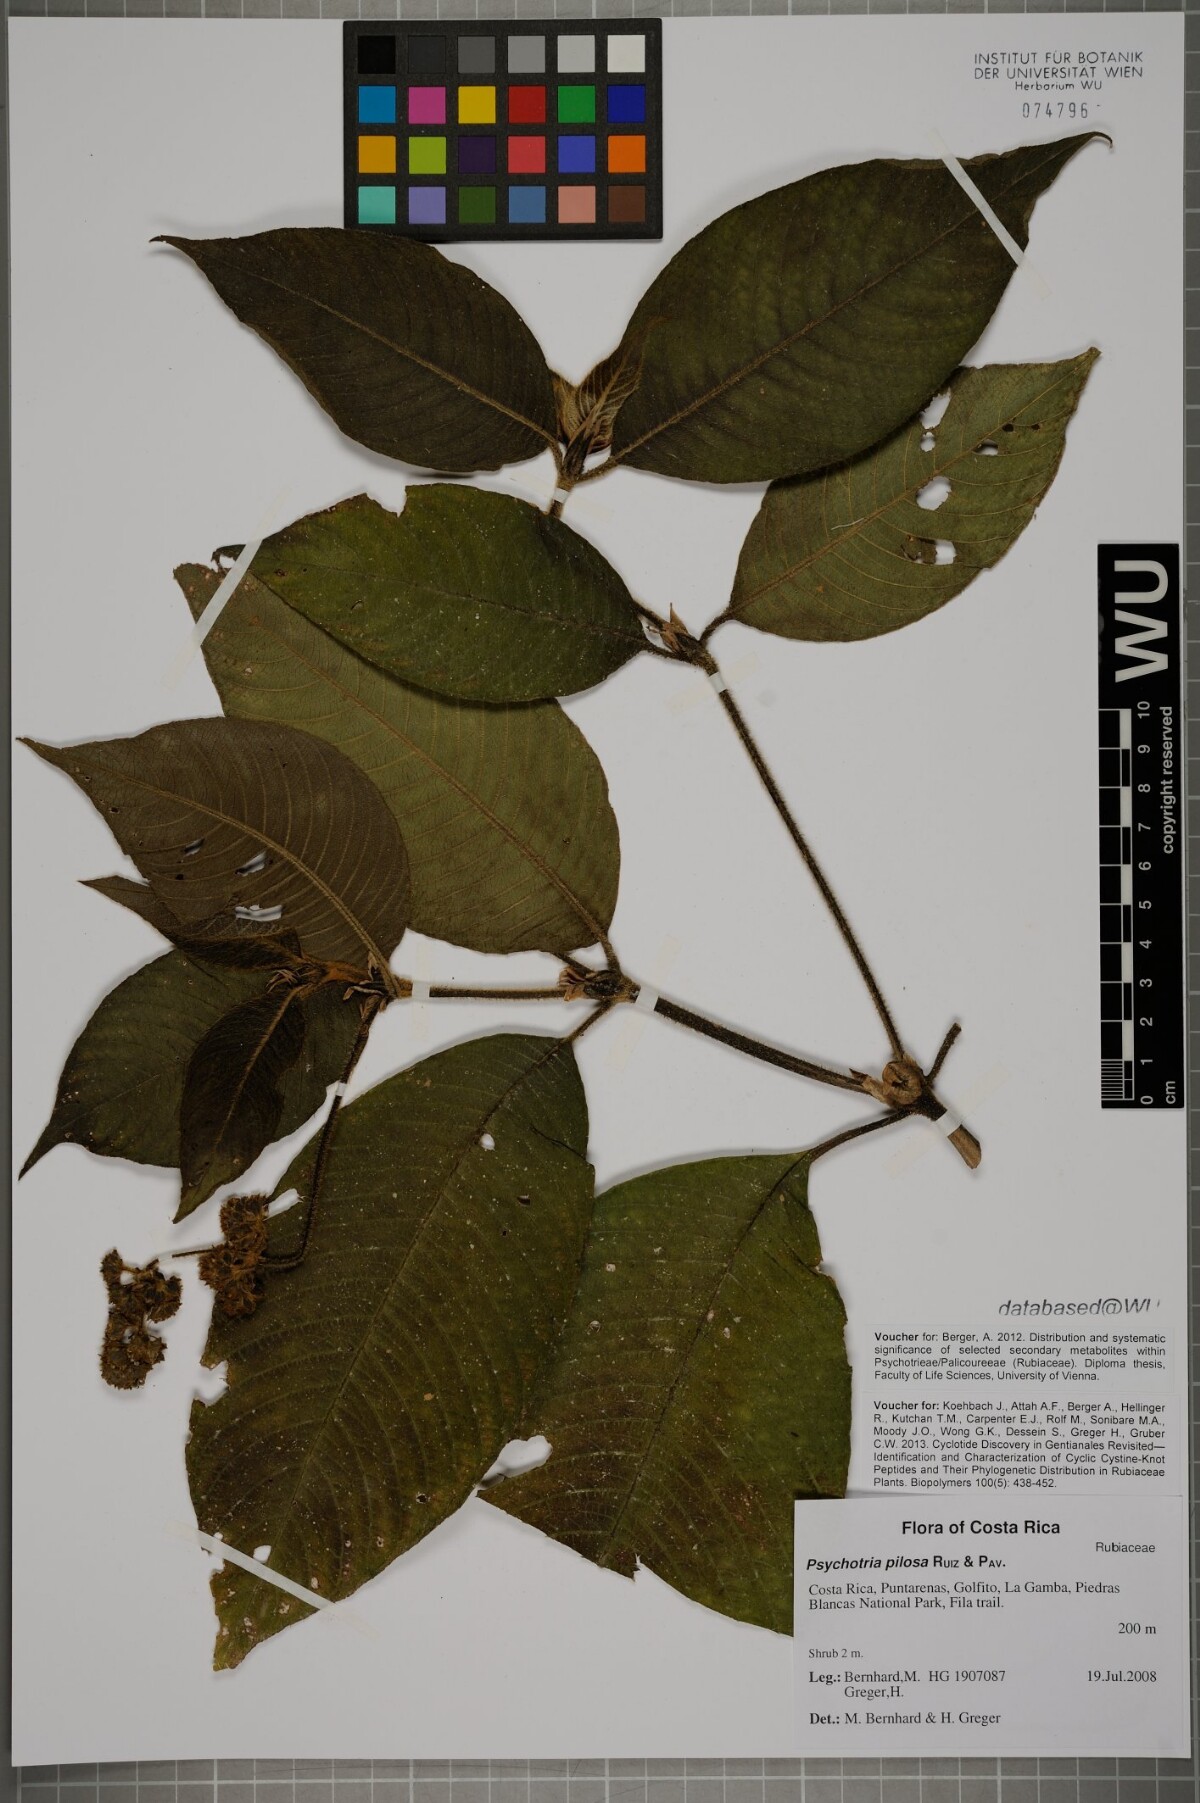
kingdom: Plantae
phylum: Tracheophyta
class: Magnoliopsida
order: Gentianales
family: Rubiaceae
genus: Palicourea
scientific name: Palicourea pilosa
